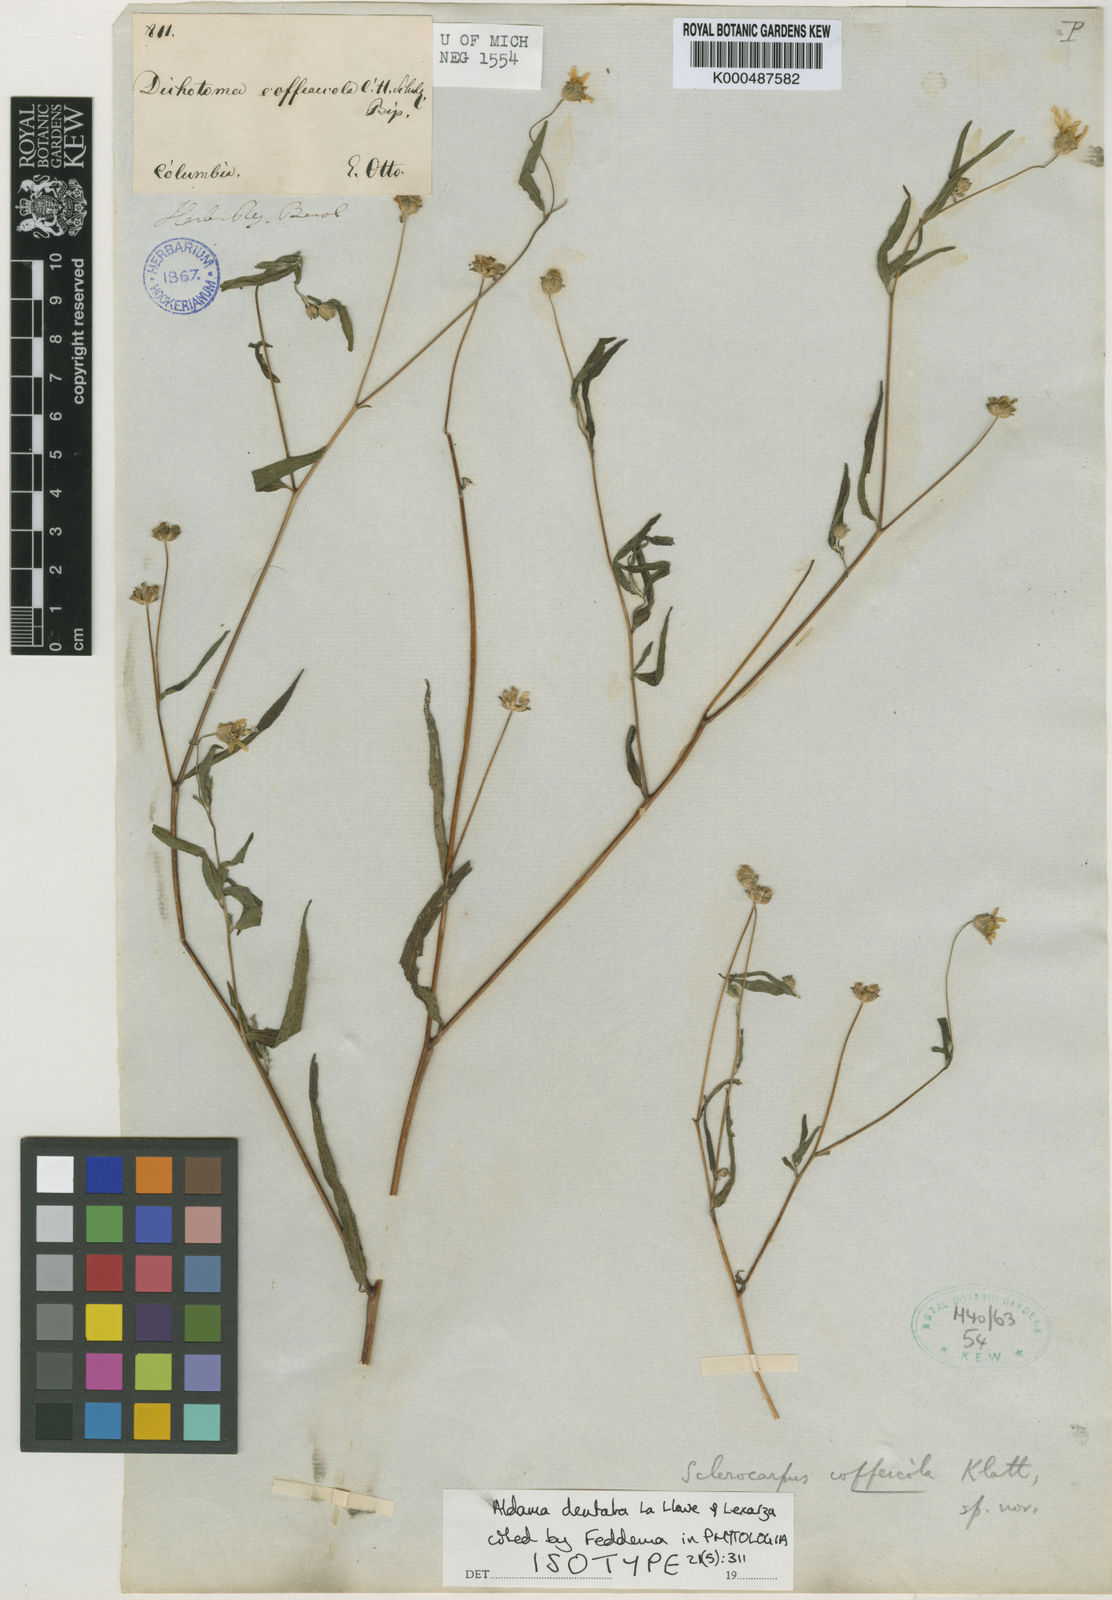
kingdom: Plantae
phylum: Tracheophyta
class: Magnoliopsida
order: Asterales
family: Asteraceae
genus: Aldama
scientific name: Aldama dentata
